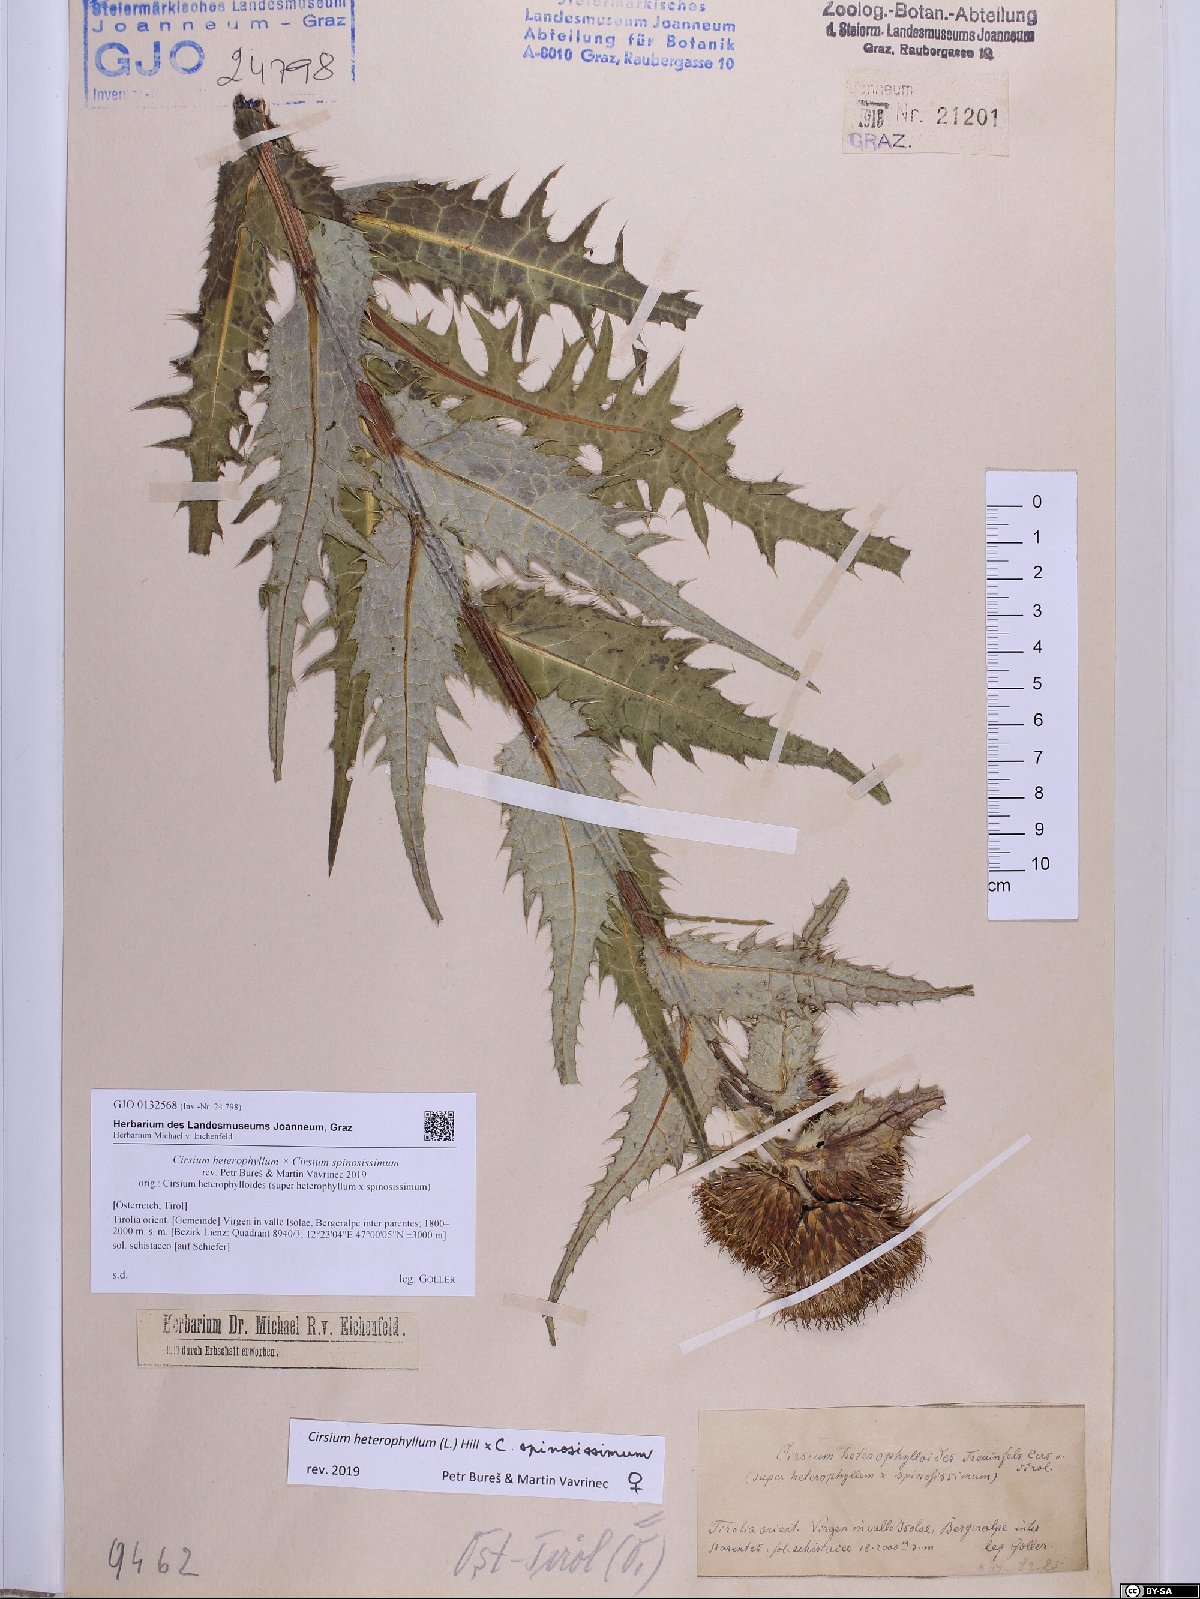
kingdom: Plantae
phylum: Tracheophyta
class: Magnoliopsida
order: Asterales
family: Asteraceae
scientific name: Asteraceae
